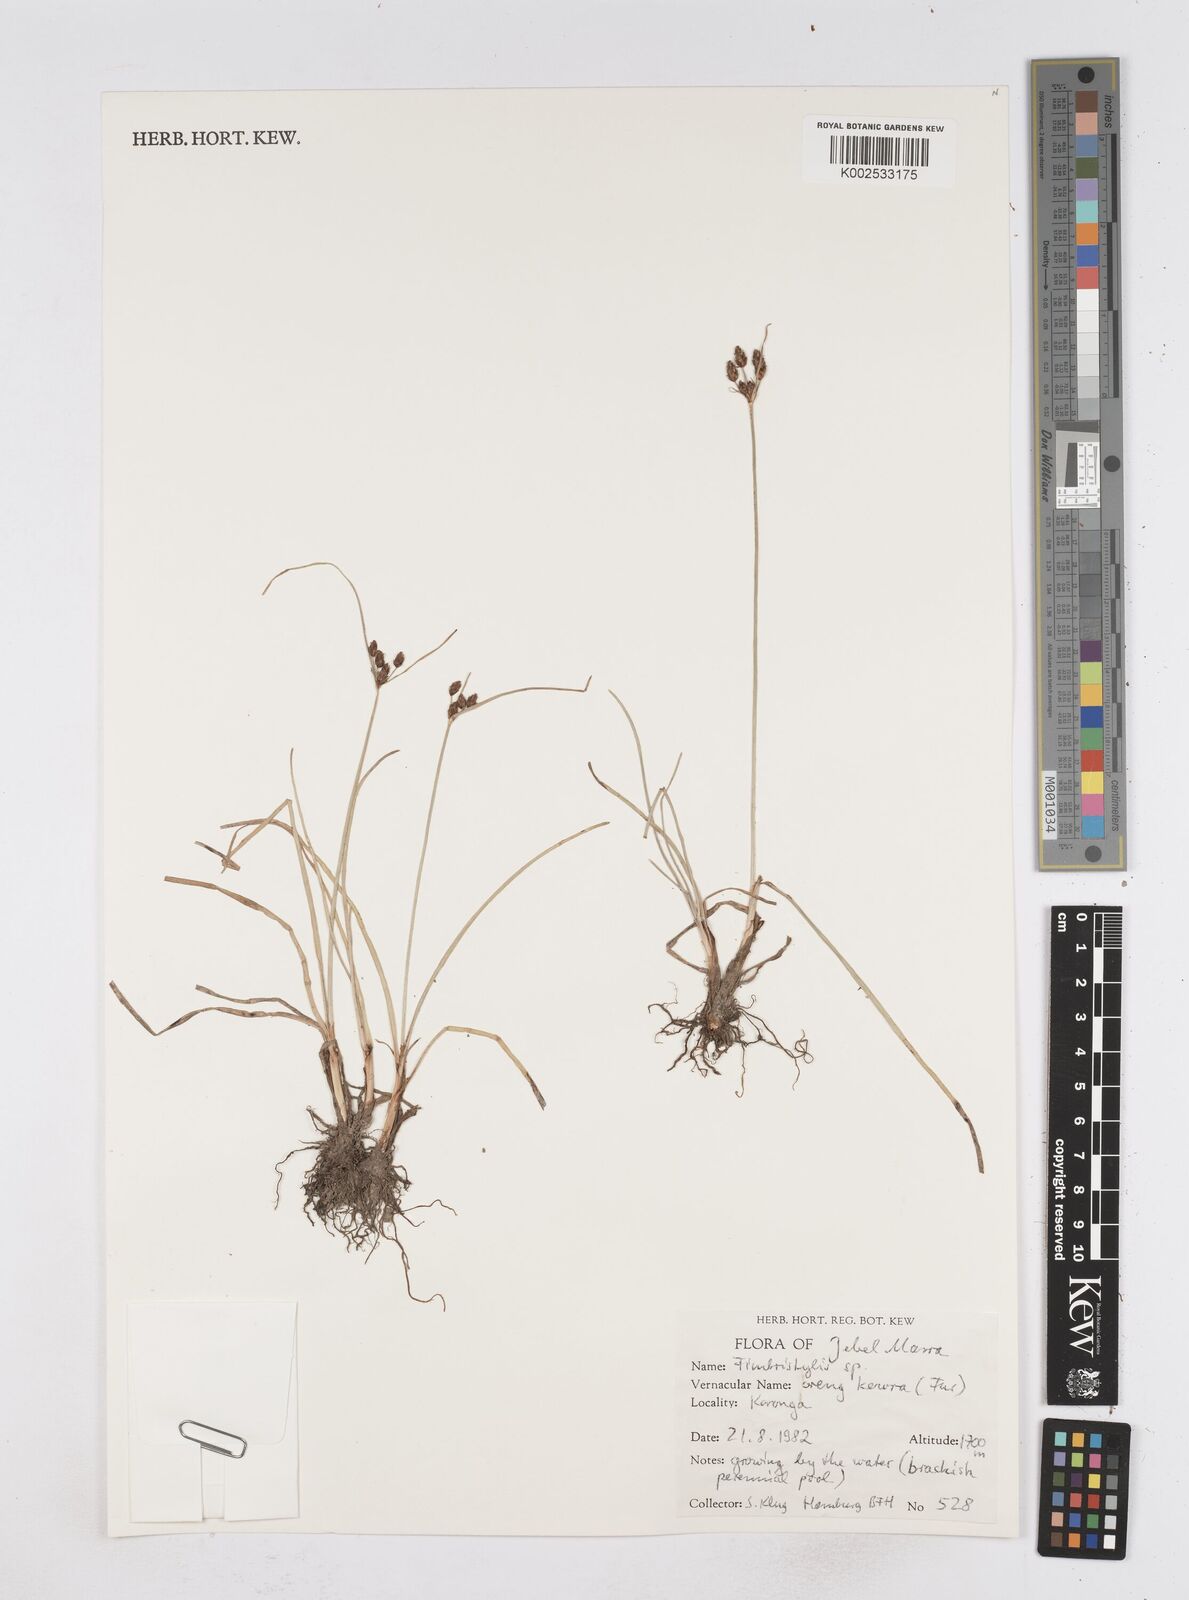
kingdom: Plantae
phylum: Tracheophyta
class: Liliopsida
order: Poales
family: Cyperaceae
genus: Fimbristylis
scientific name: Fimbristylis
